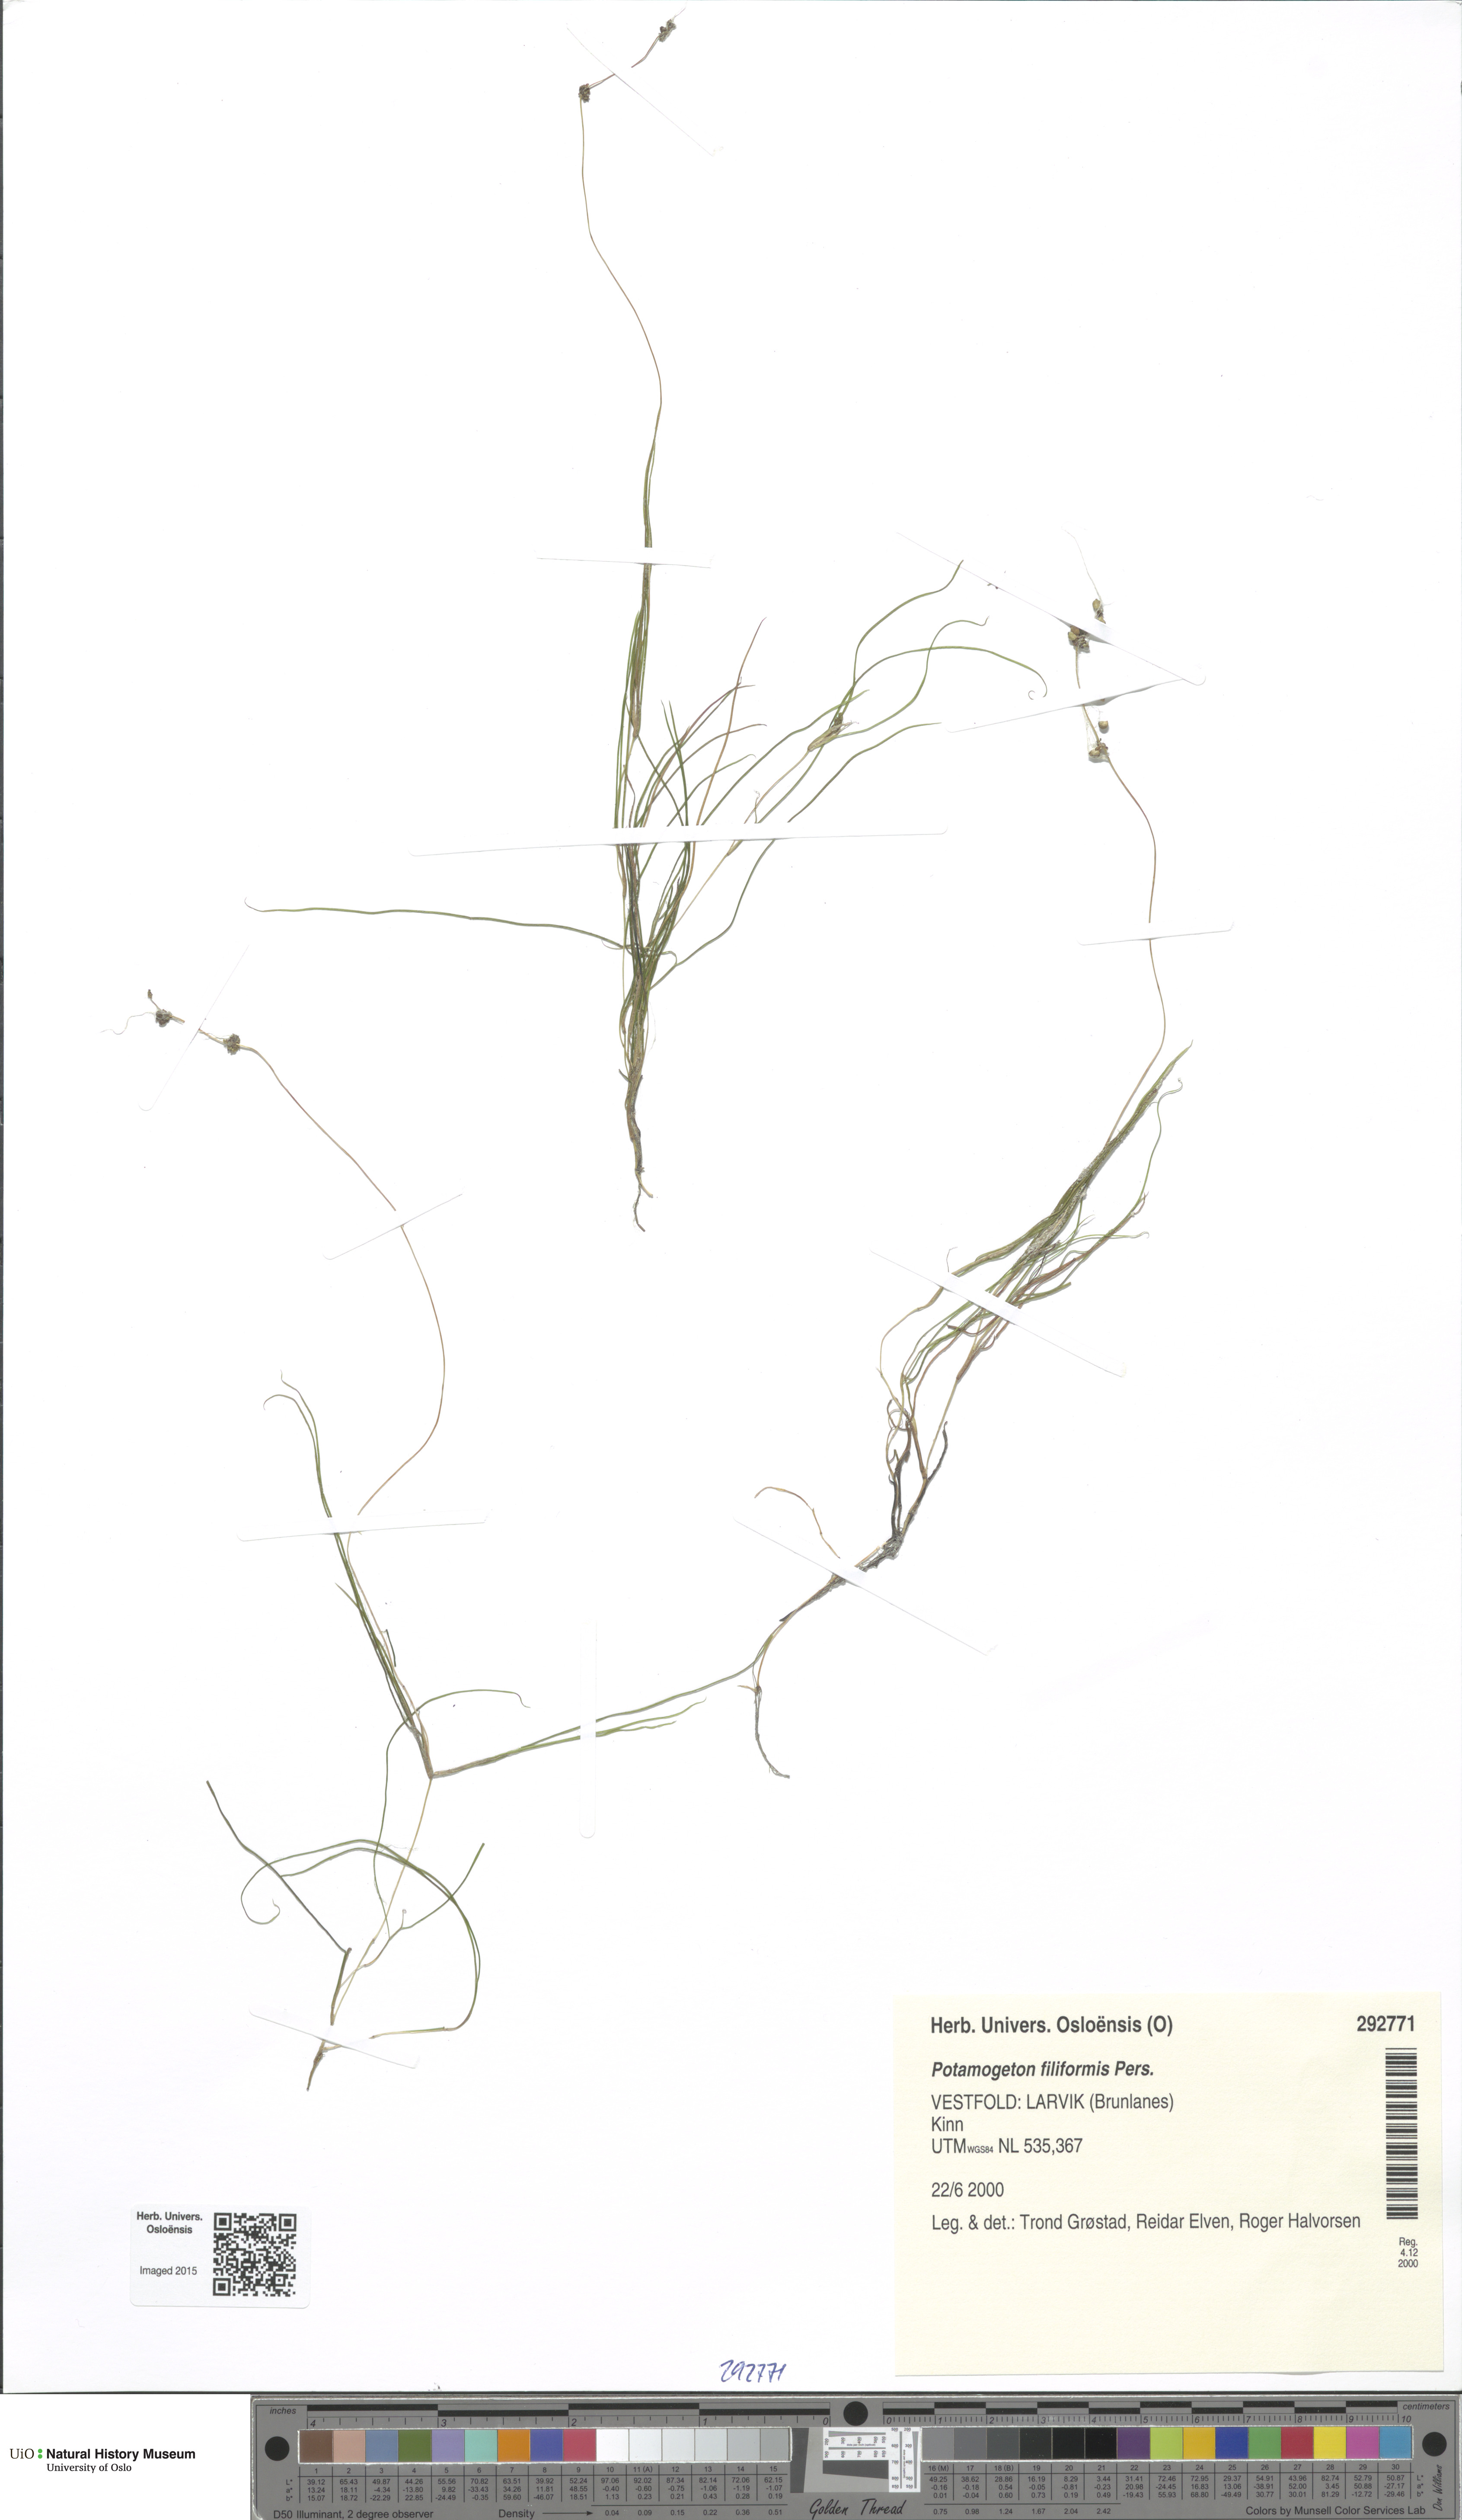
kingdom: Plantae
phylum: Tracheophyta
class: Liliopsida
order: Alismatales
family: Potamogetonaceae
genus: Stuckenia
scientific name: Stuckenia filiformis
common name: Alpine thread-leaved pondweed
